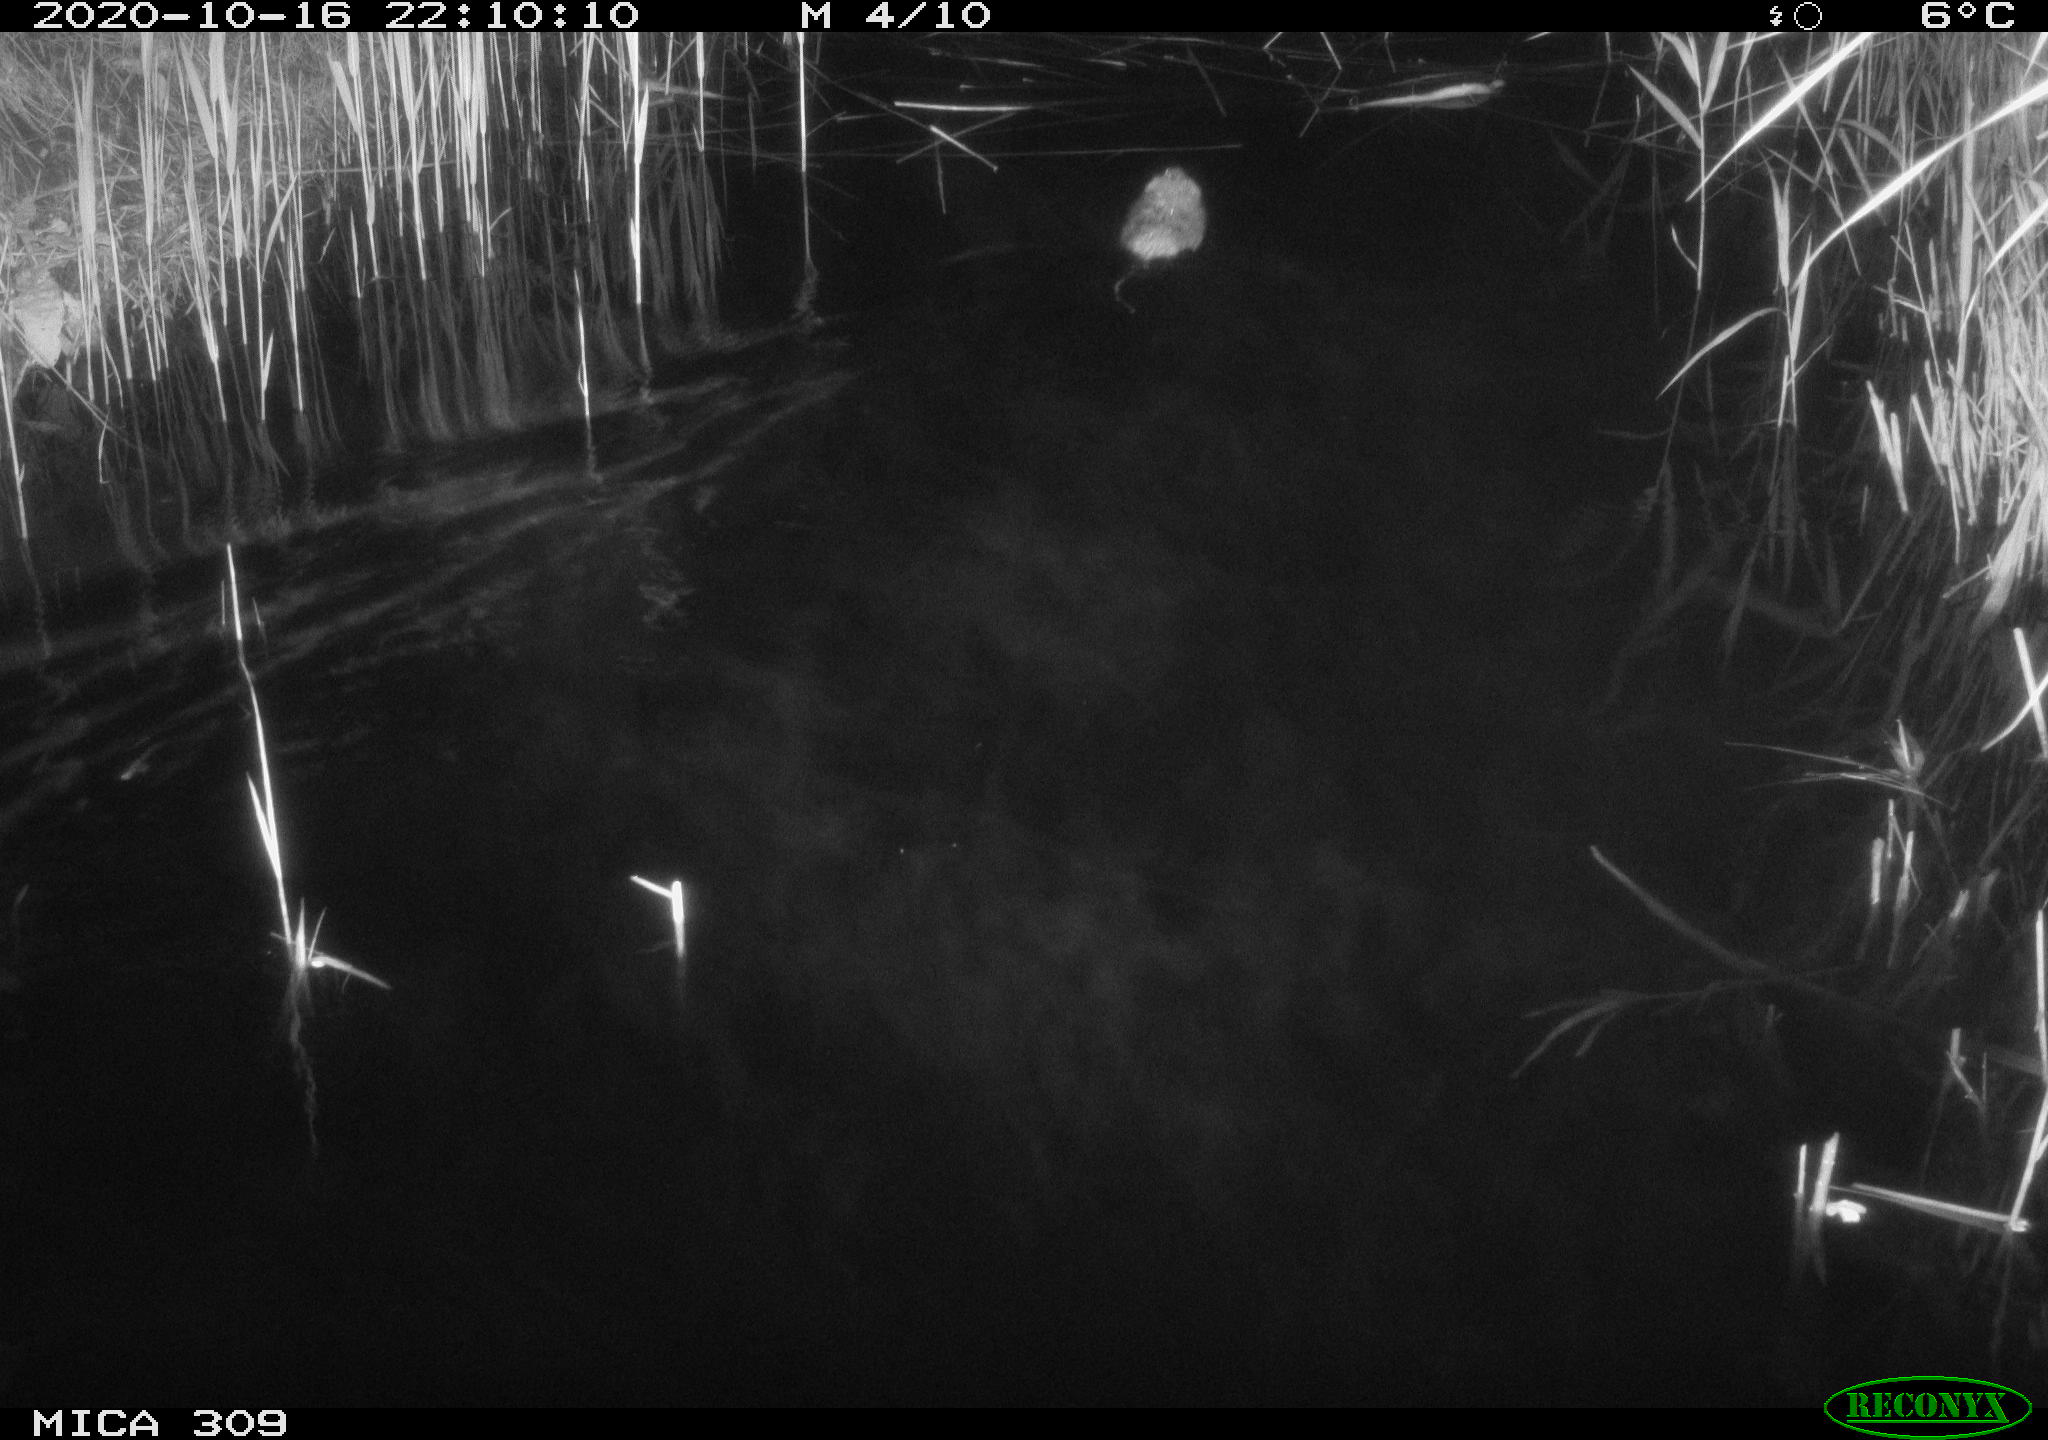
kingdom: Animalia
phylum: Chordata
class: Mammalia
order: Rodentia
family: Muridae
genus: Rattus
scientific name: Rattus norvegicus
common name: Brown rat
